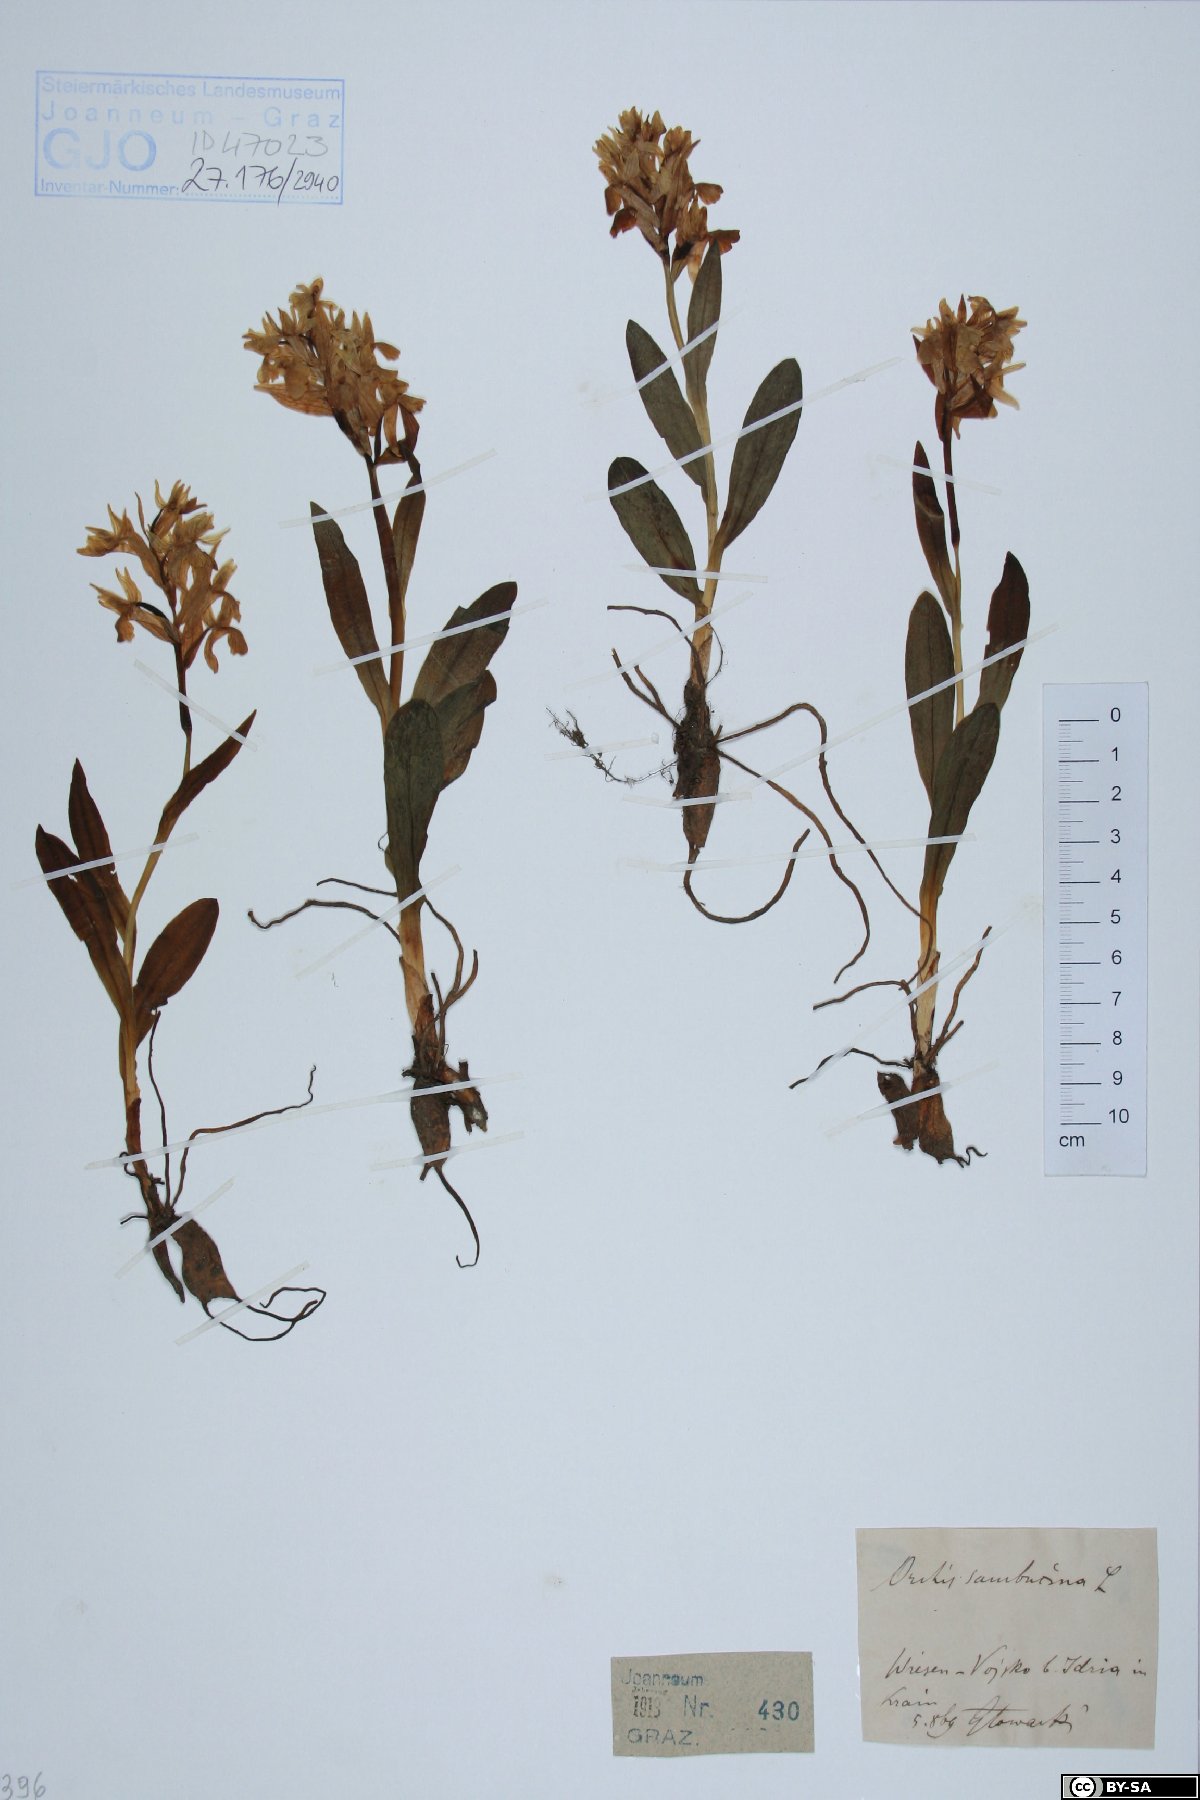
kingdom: Plantae
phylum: Tracheophyta
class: Liliopsida
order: Asparagales
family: Orchidaceae
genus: Dactylorhiza
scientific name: Dactylorhiza sambucina
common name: Elder-flowered orchid
